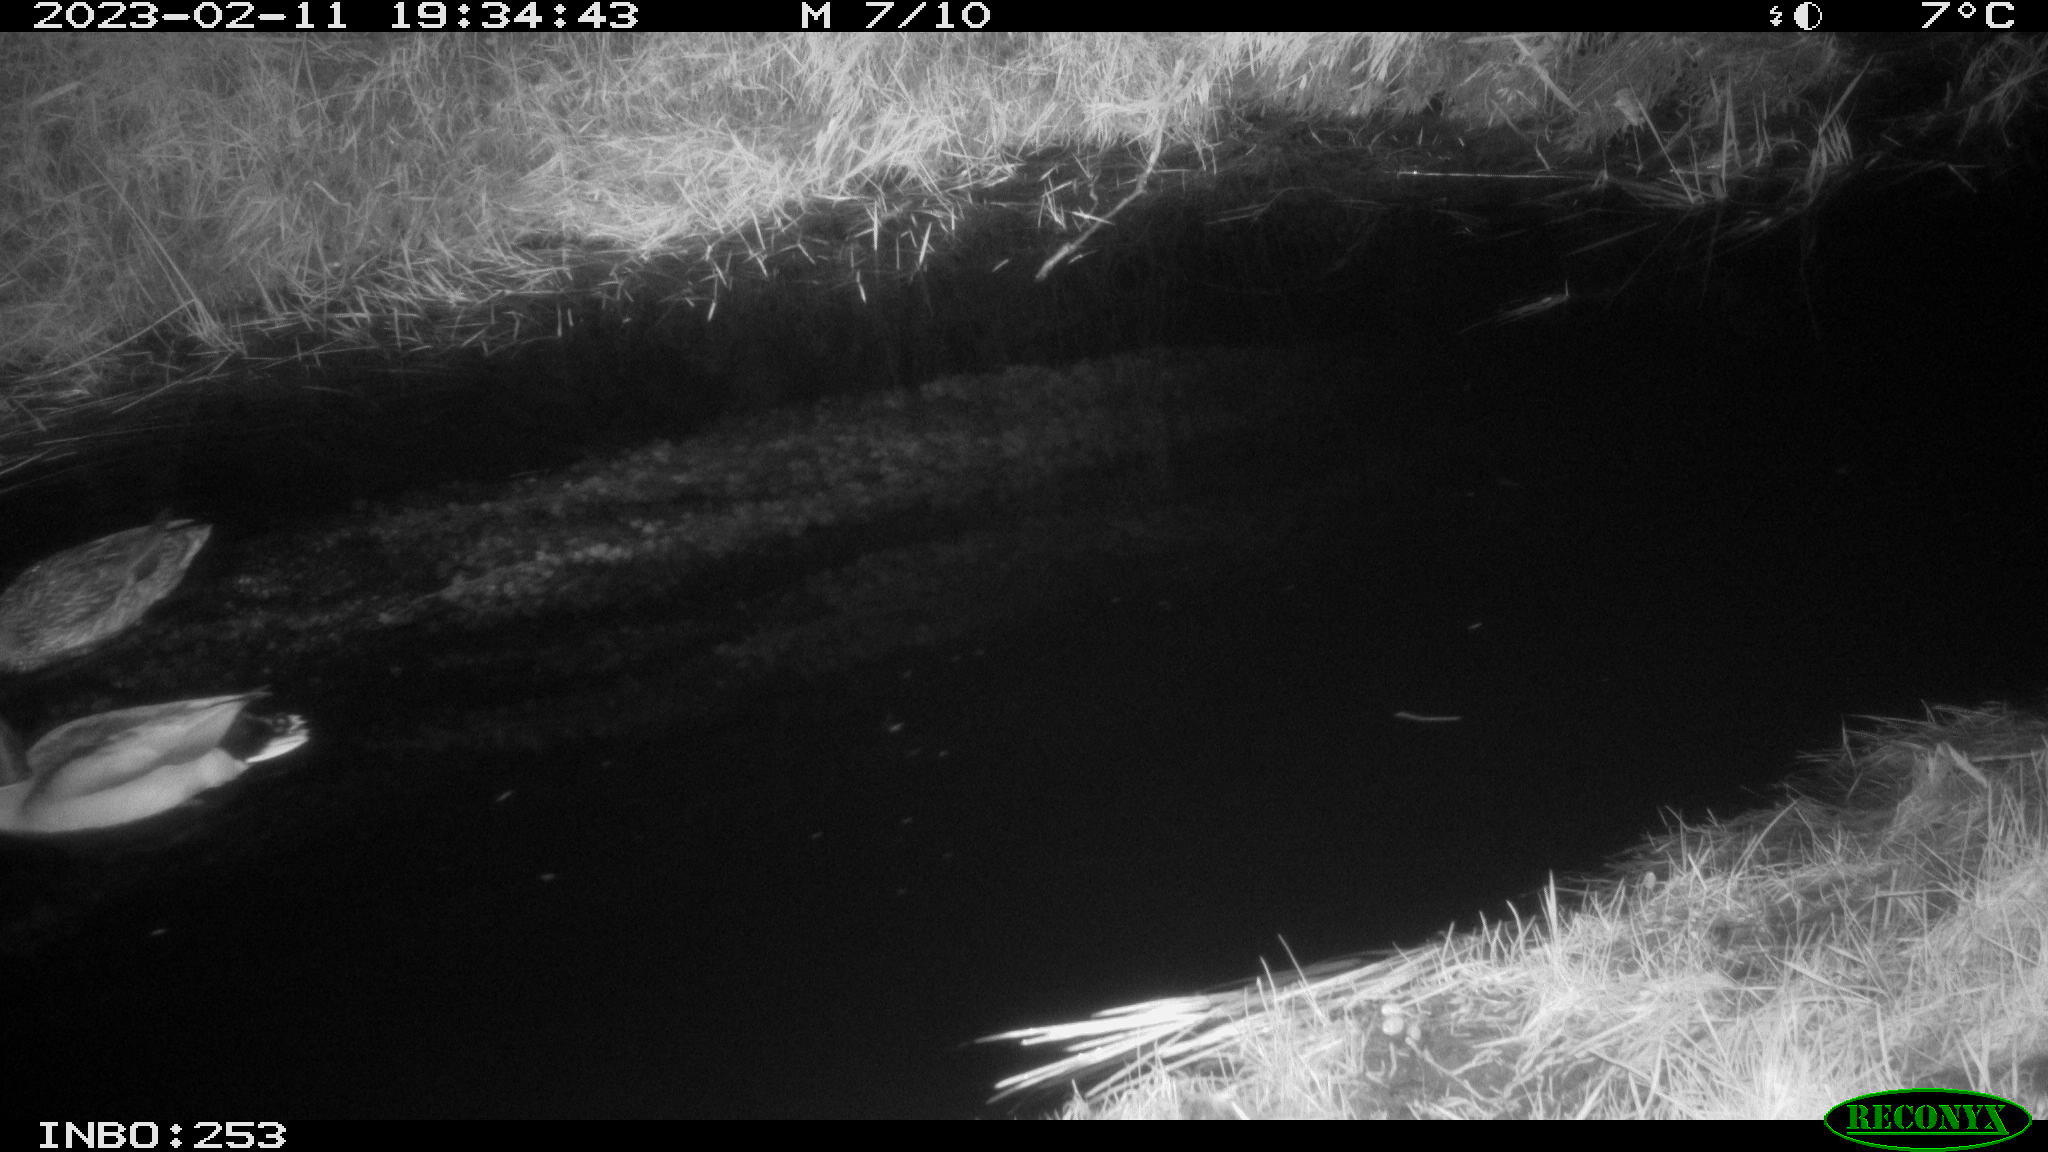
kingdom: Animalia
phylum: Chordata
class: Aves
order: Anseriformes
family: Anatidae
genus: Anas
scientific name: Anas
